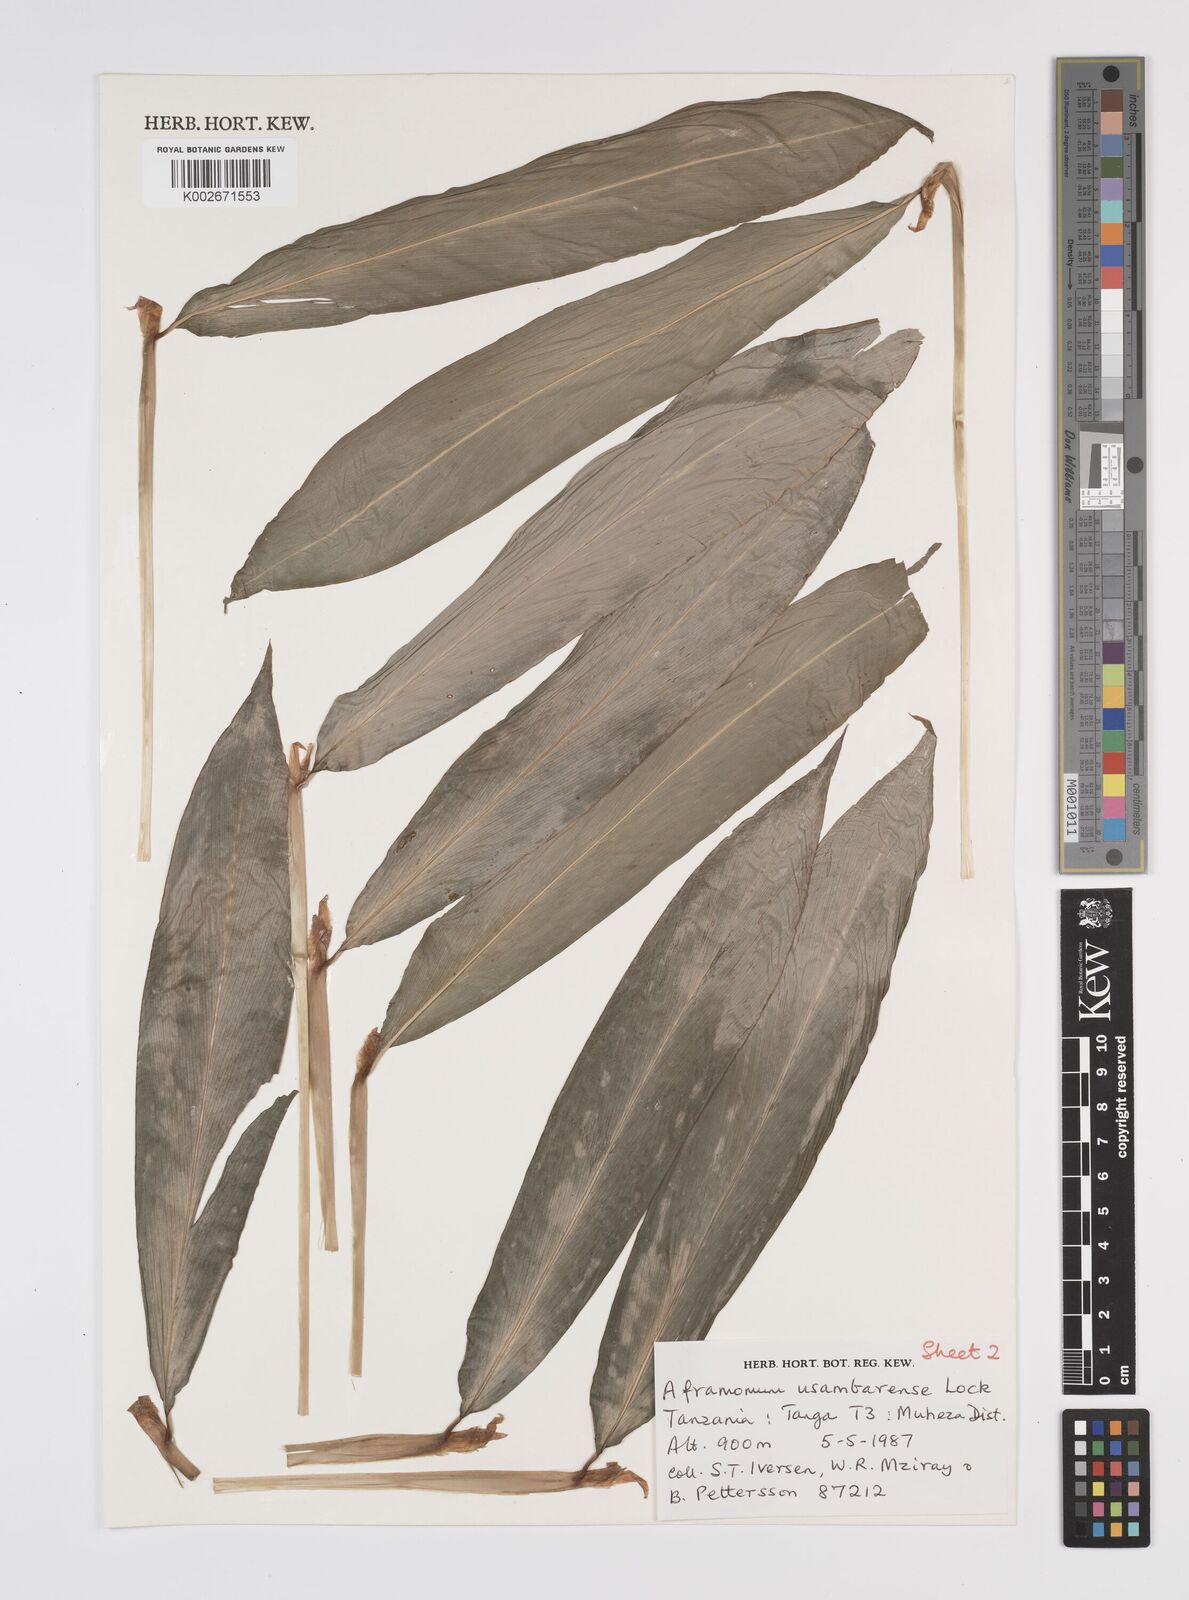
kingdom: Plantae
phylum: Tracheophyta
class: Liliopsida
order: Zingiberales
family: Zingiberaceae
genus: Aframomum
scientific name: Aframomum corrorima
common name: Ethiopian cardamom
